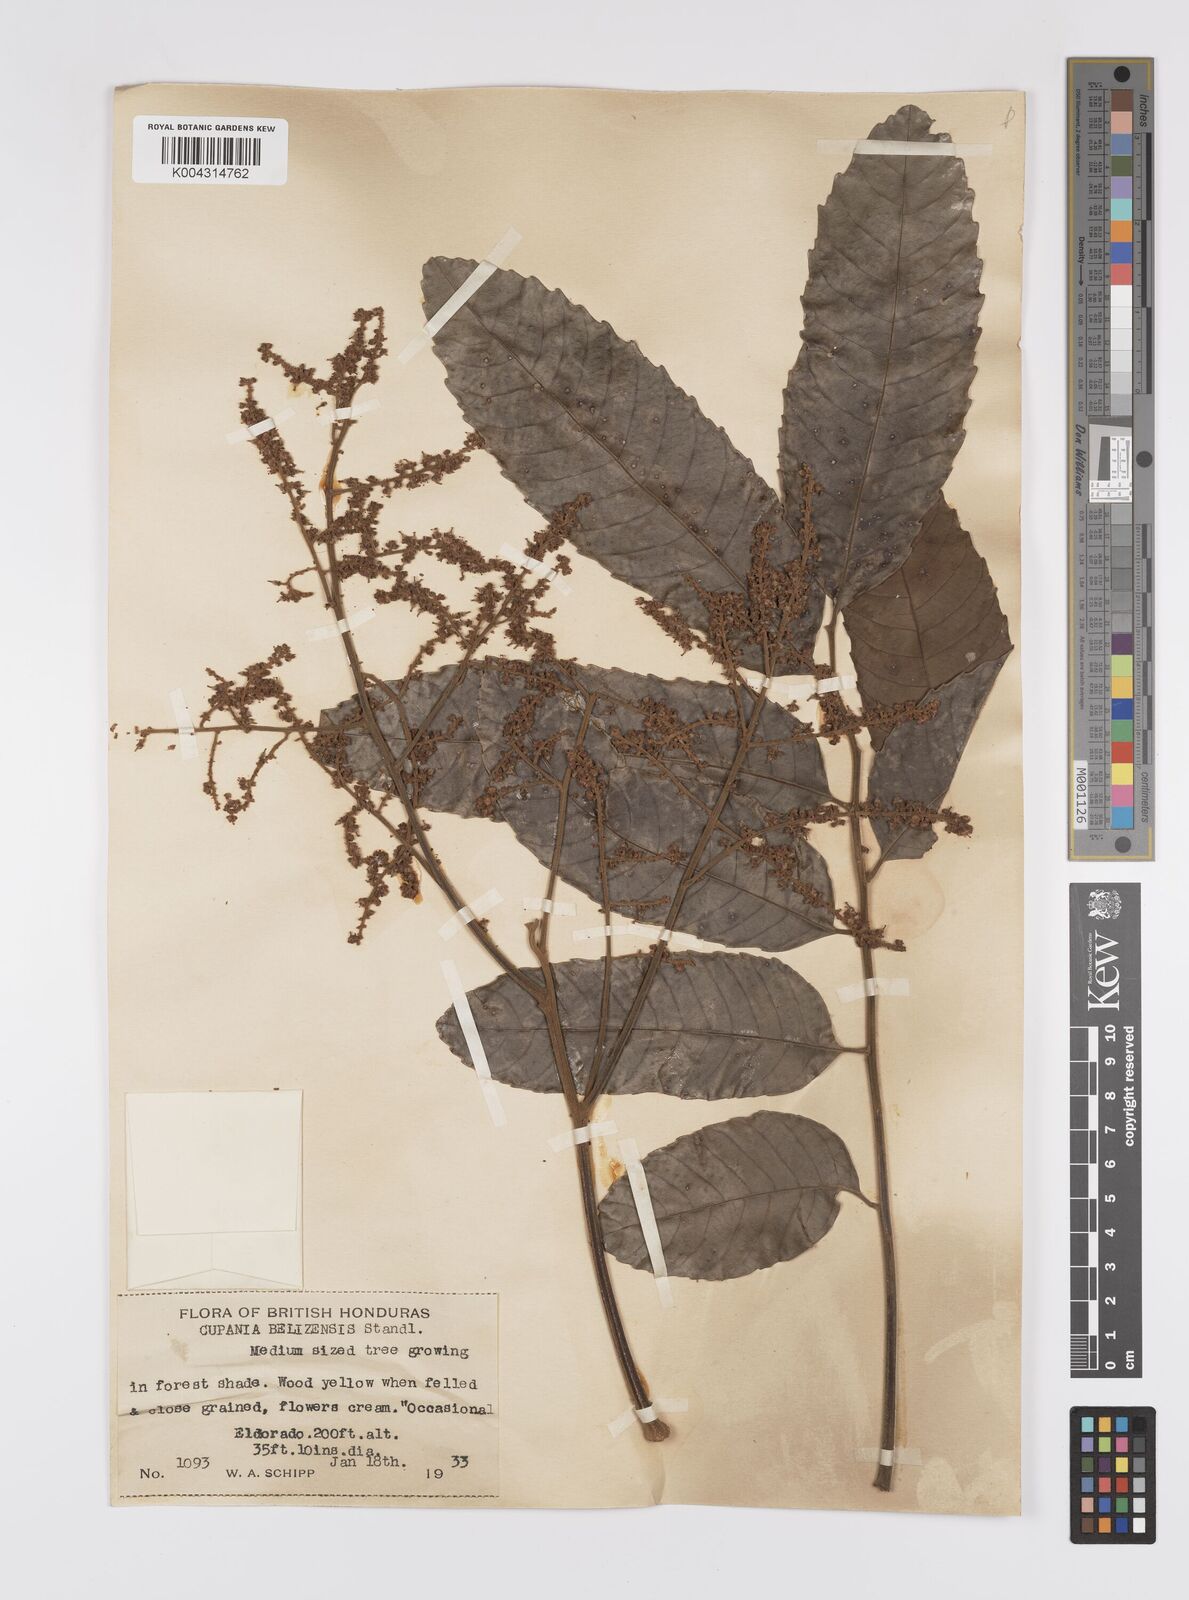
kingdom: Plantae
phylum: Tracheophyta
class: Magnoliopsida
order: Sapindales
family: Sapindaceae
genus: Cupania
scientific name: Cupania belizensis
